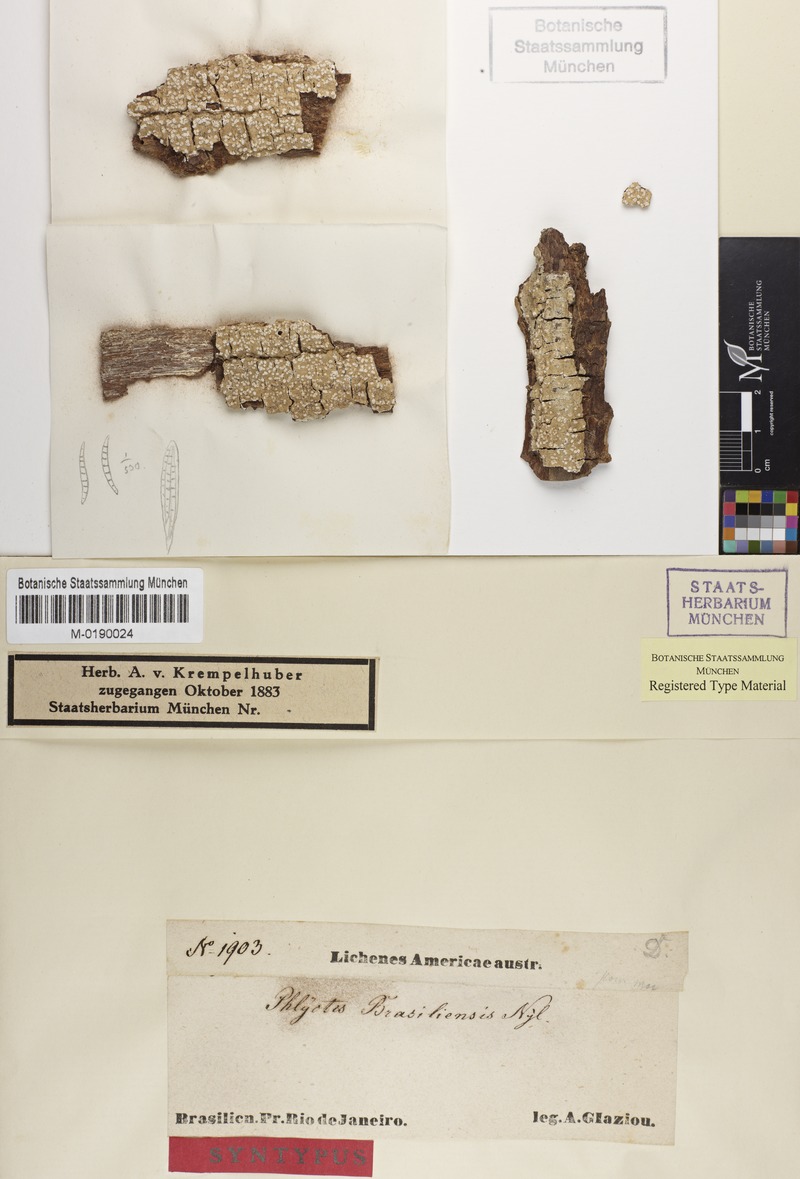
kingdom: Fungi
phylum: Ascomycota
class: Lecanoromycetes
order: Ostropales
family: Phlyctidaceae
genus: Phlyctella
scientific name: Phlyctella brasiliensis
